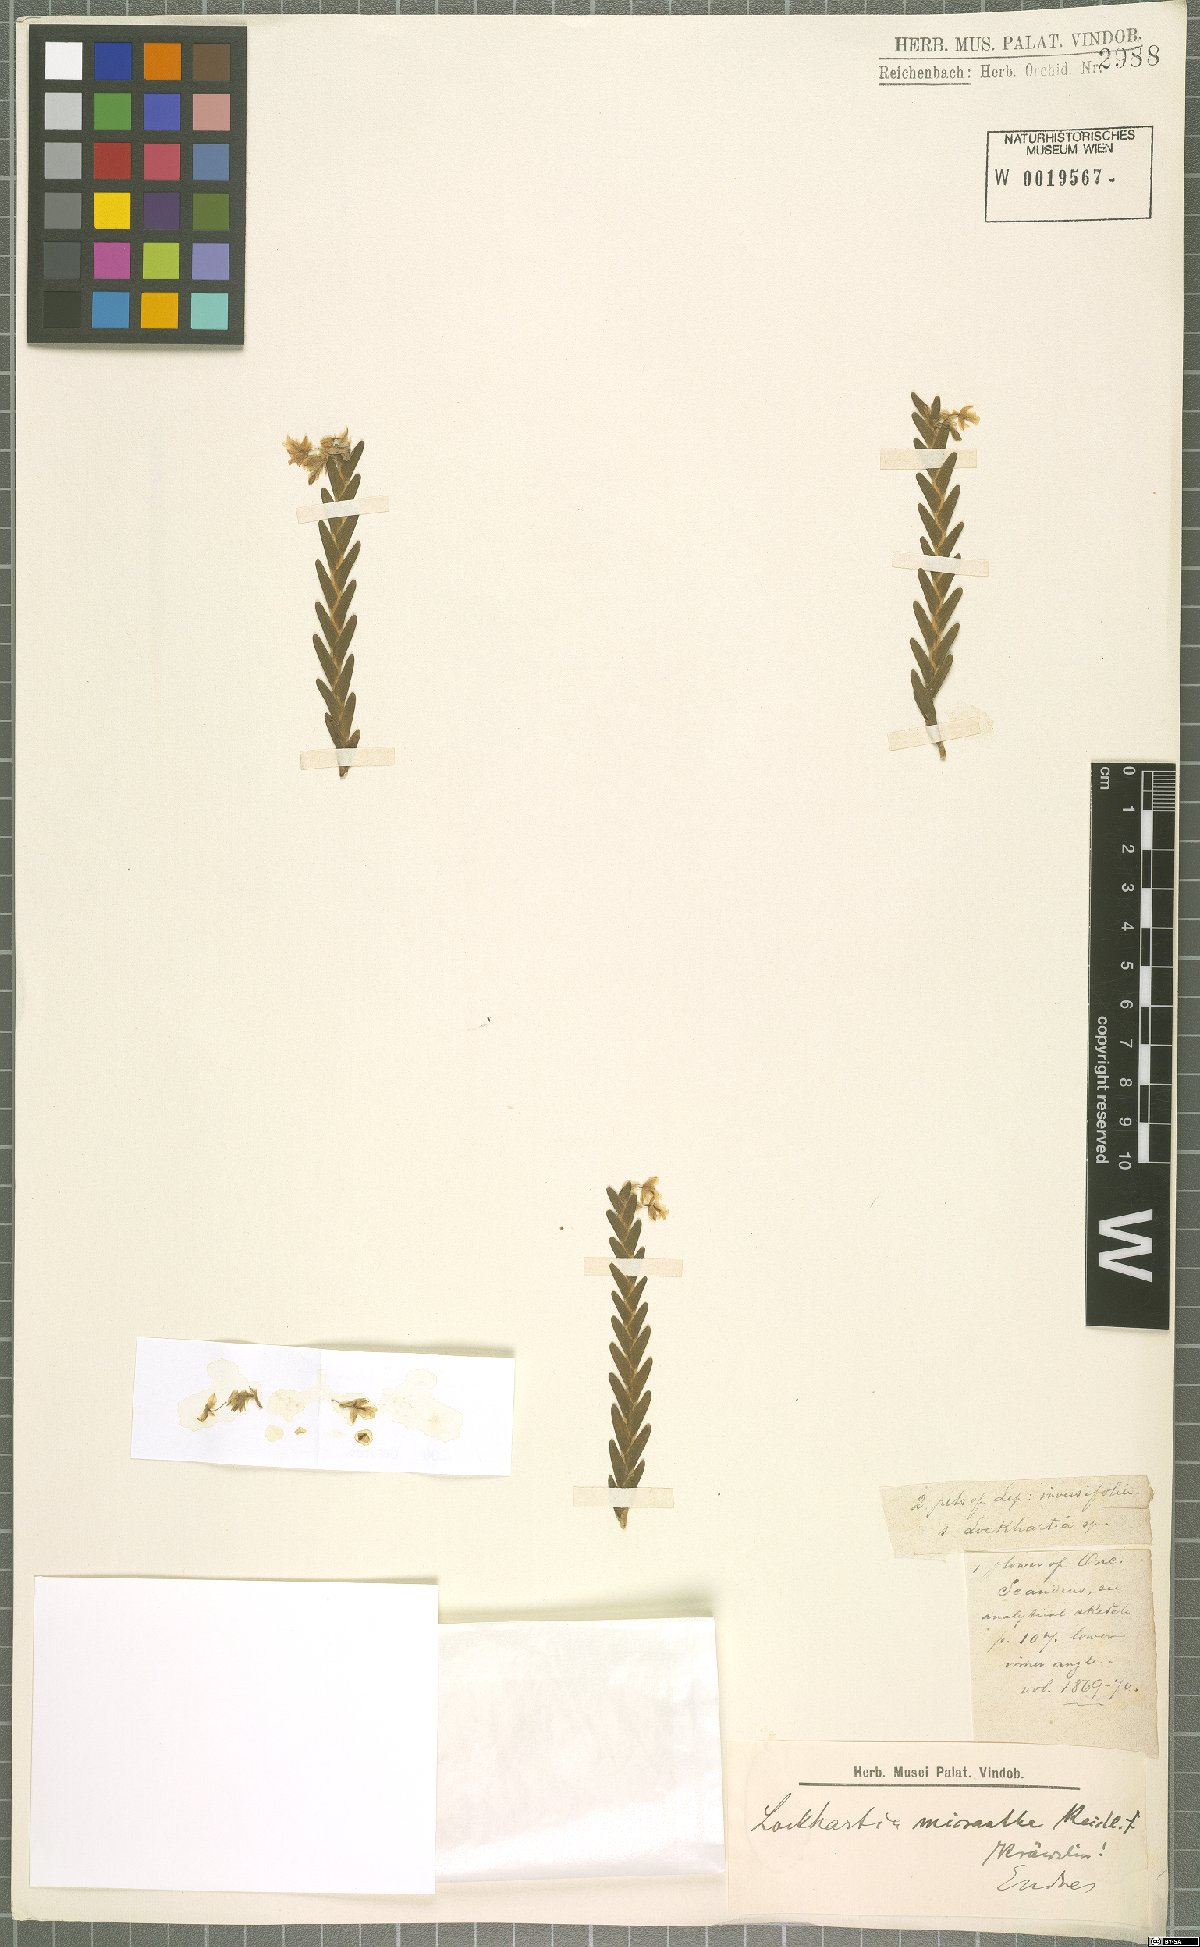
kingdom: Plantae
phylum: Tracheophyta
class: Liliopsida
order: Asparagales
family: Orchidaceae
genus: Lockhartia
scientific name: Lockhartia micrantha
